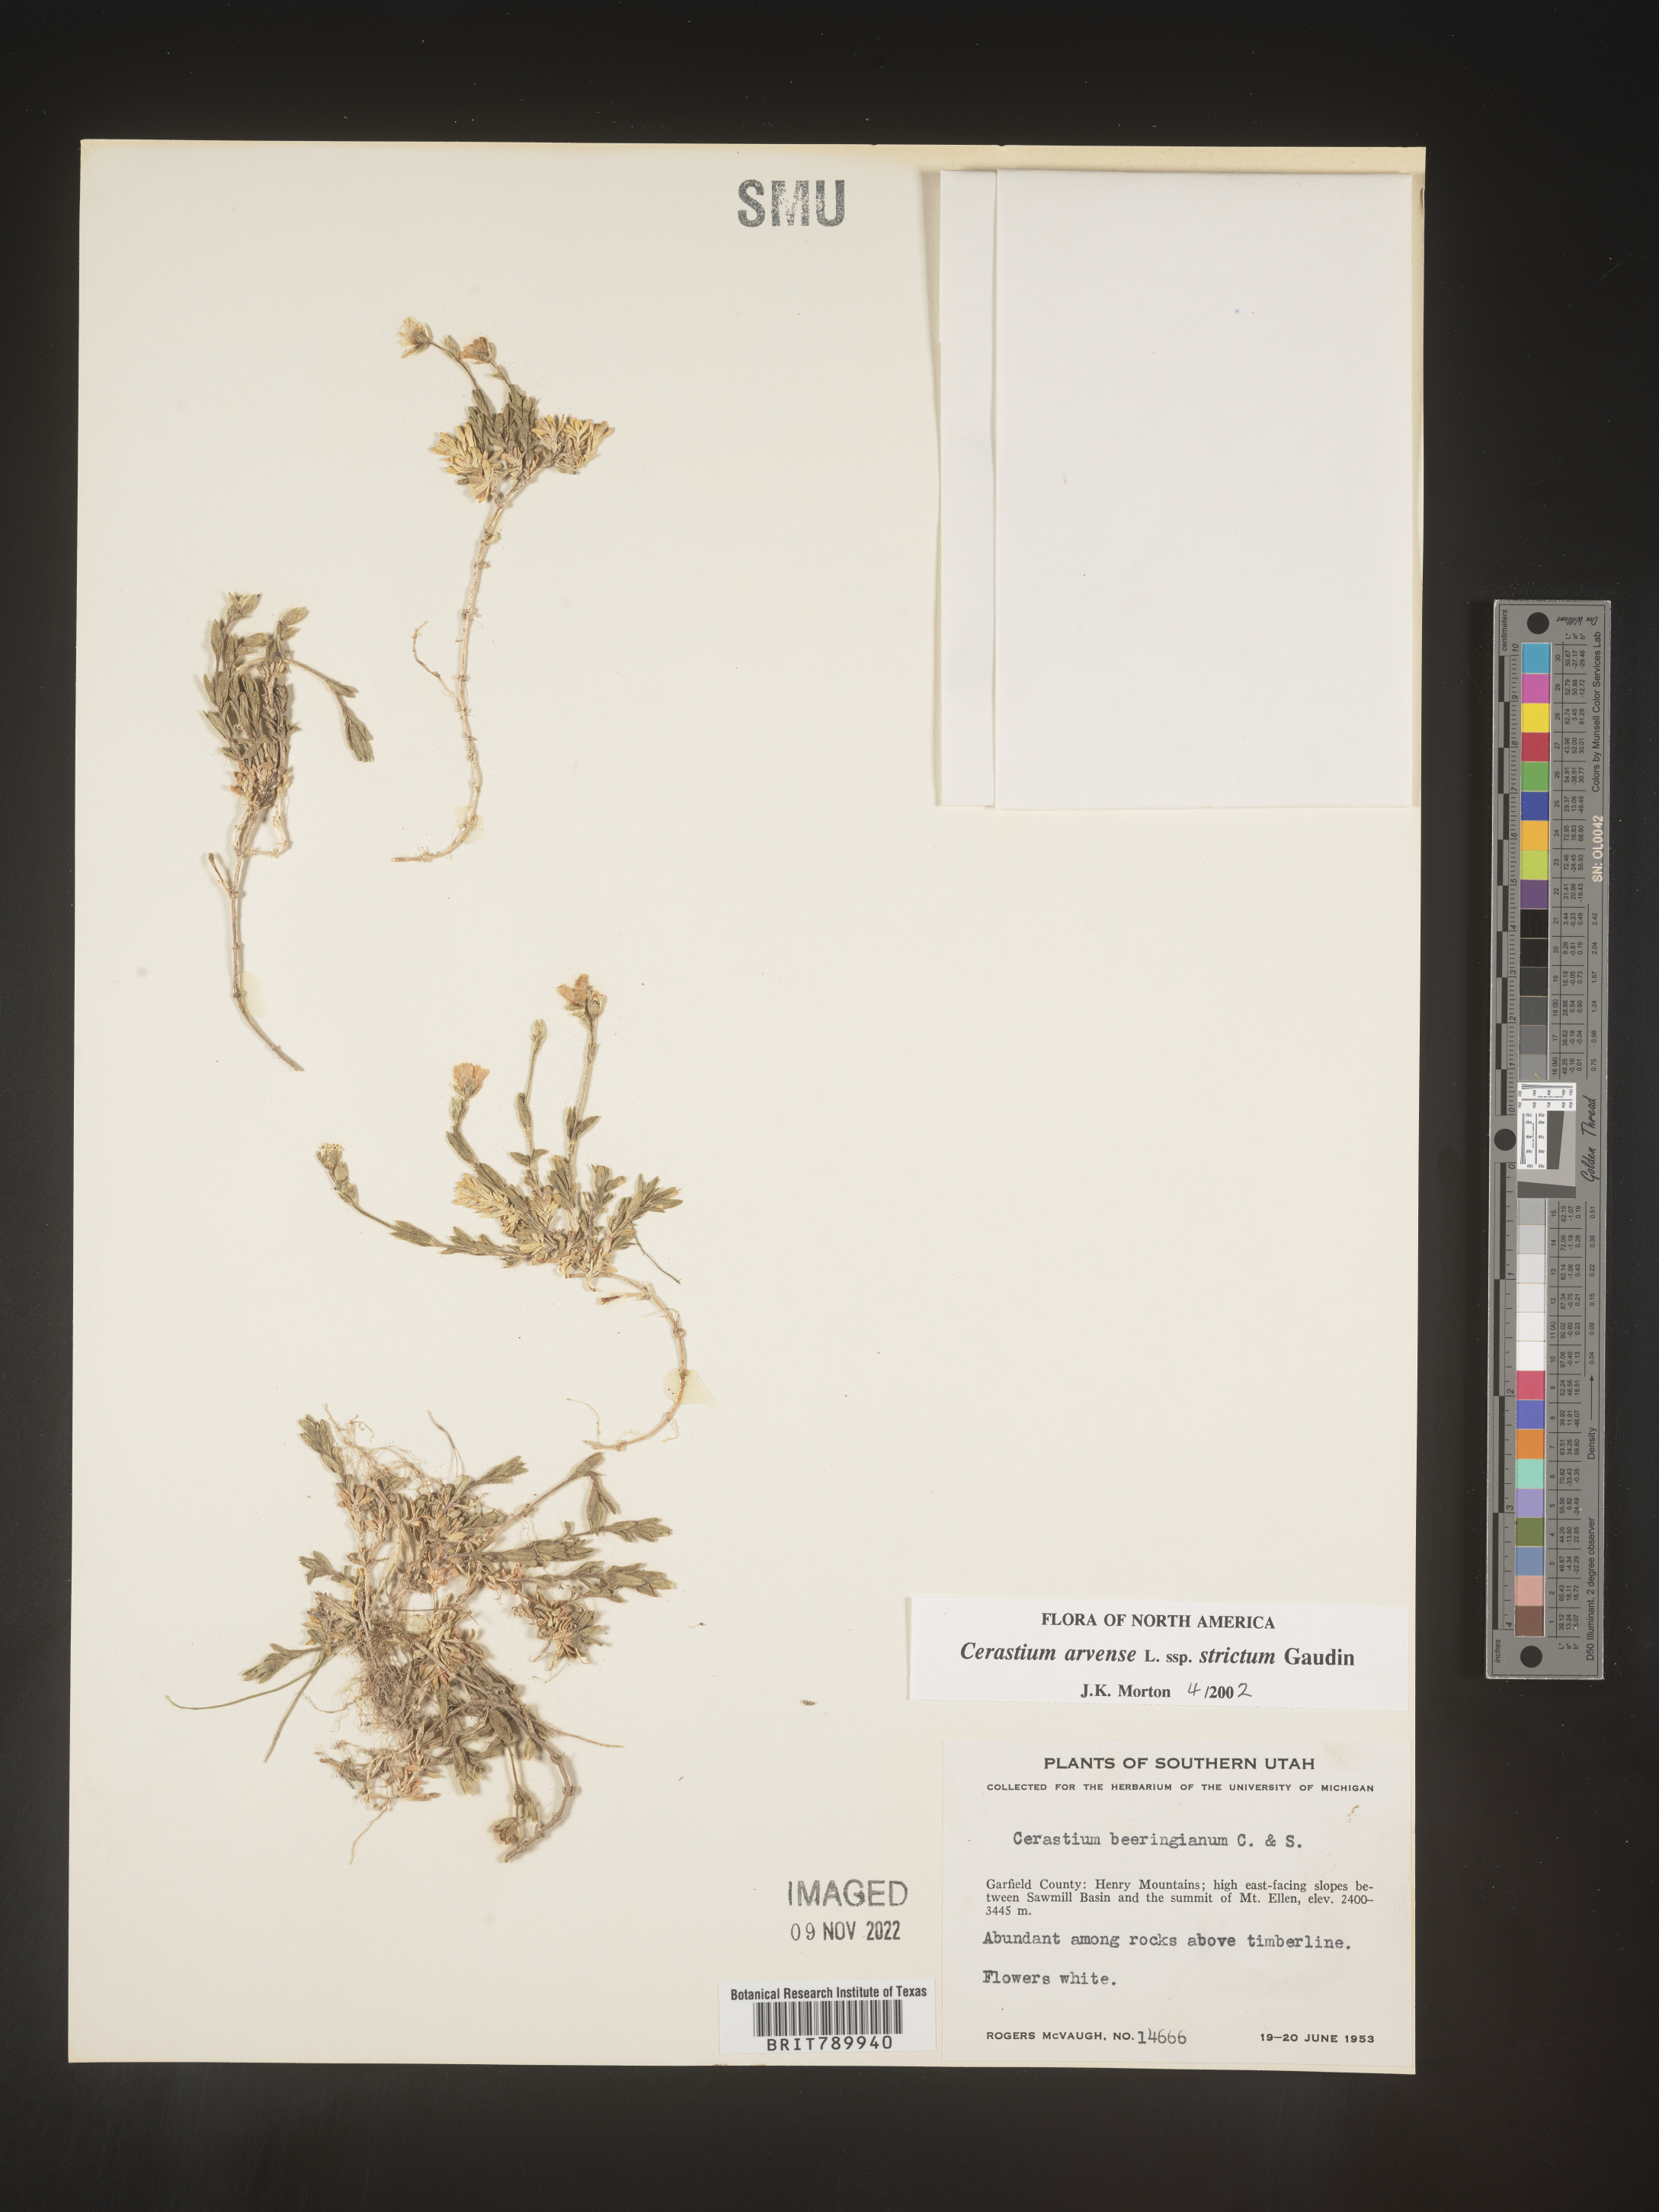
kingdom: Plantae
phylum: Tracheophyta
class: Magnoliopsida
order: Caryophyllales
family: Caryophyllaceae
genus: Cerastium
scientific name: Cerastium arvense
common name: Field mouse-ear
